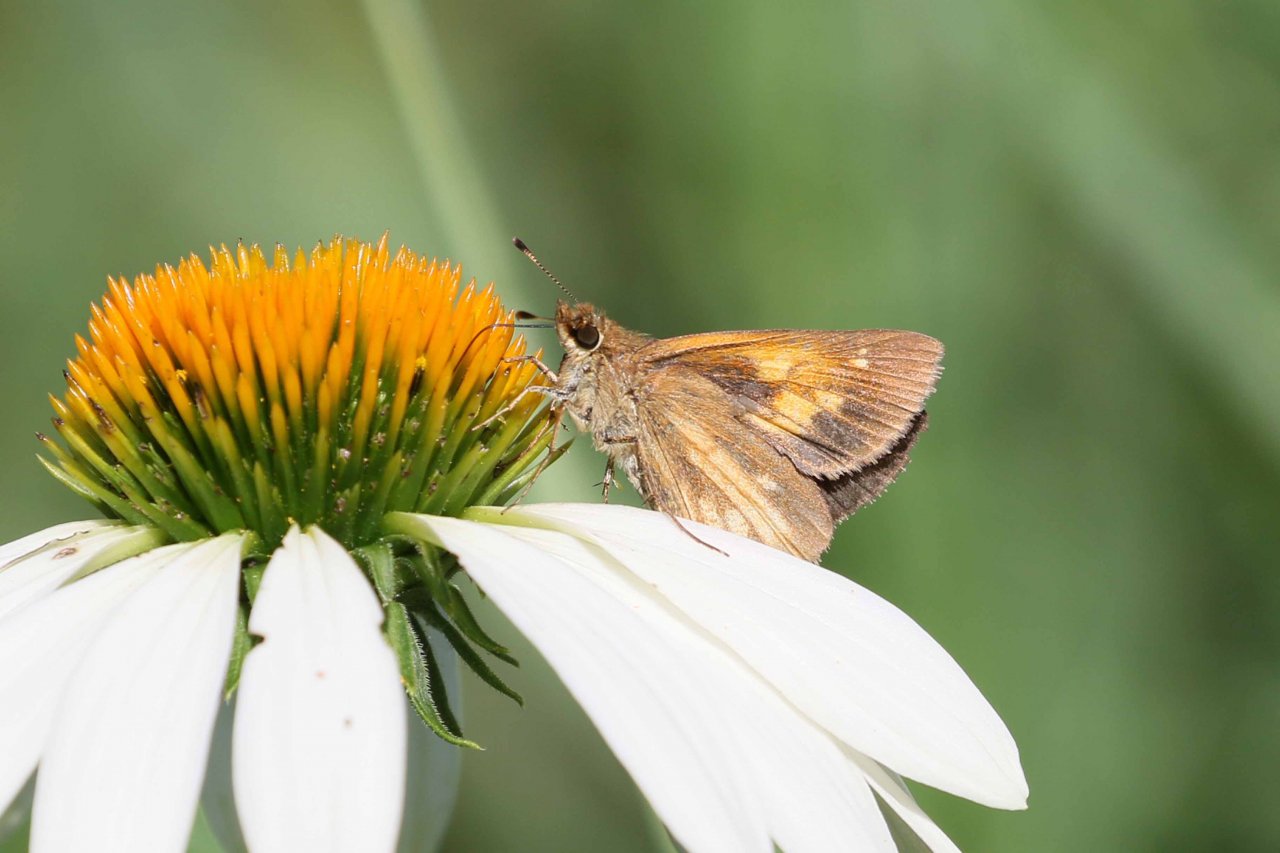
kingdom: Animalia
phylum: Arthropoda
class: Insecta
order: Lepidoptera
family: Hesperiidae
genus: Poanes
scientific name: Poanes viator
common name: Broad-winged Skipper
